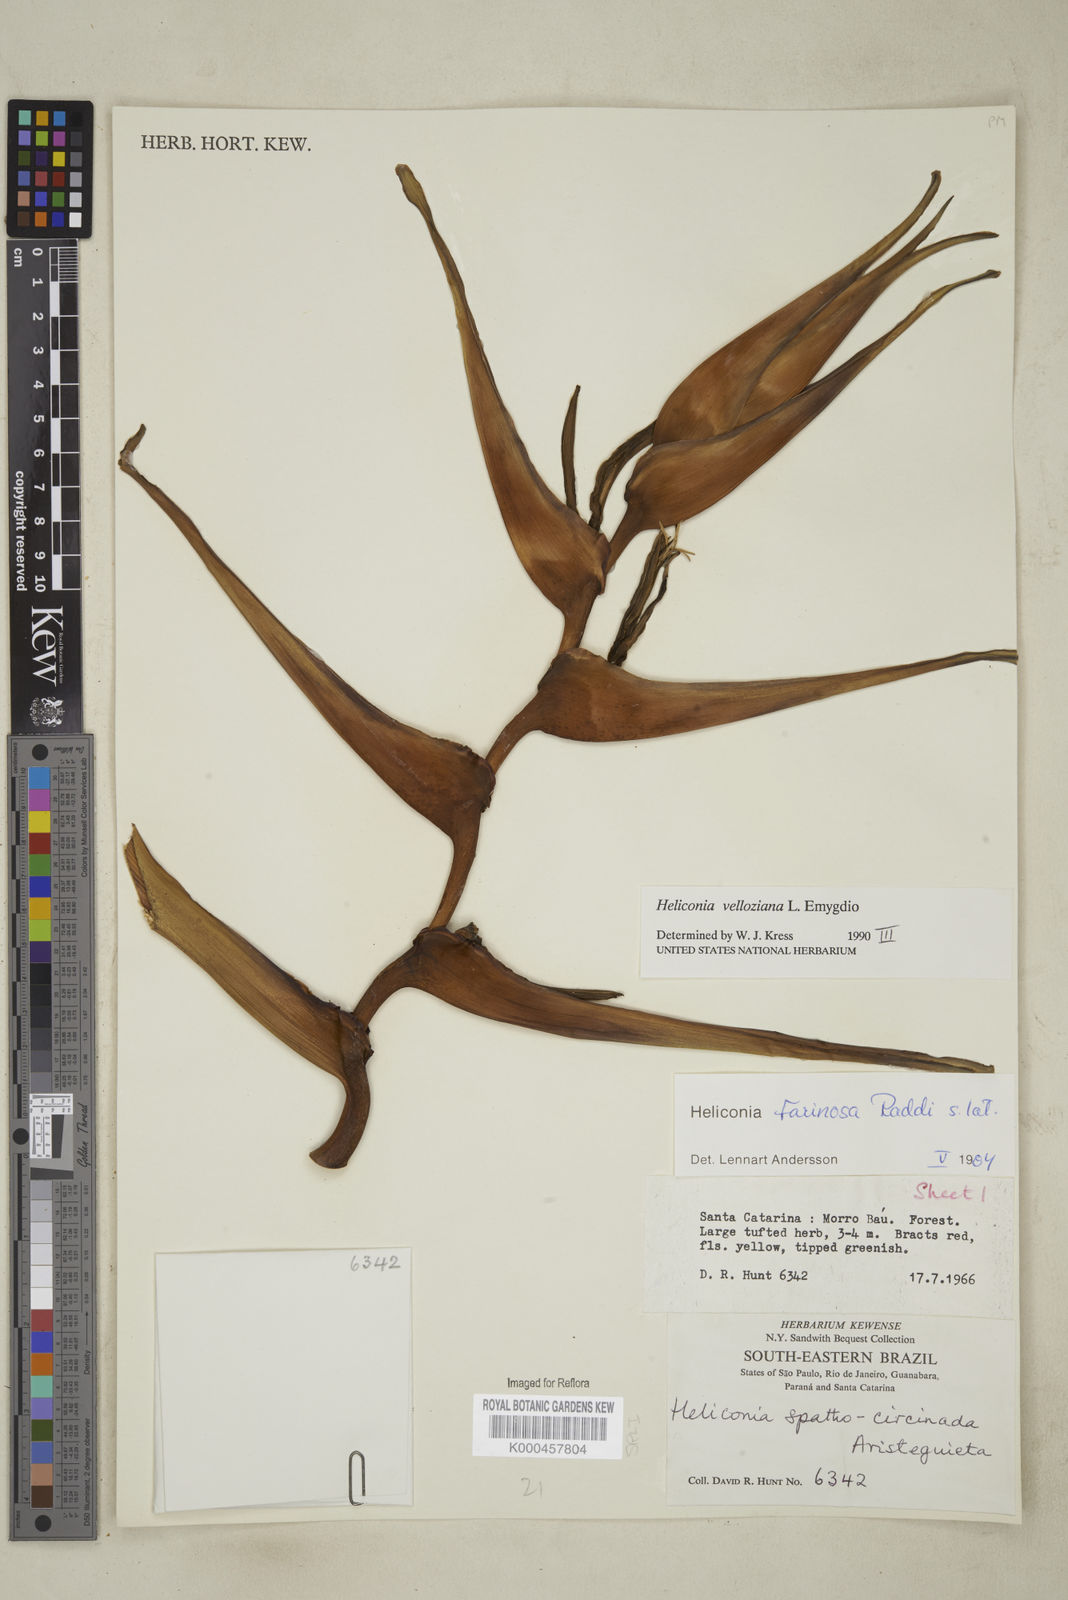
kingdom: Plantae
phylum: Tracheophyta
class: Liliopsida
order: Zingiberales
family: Heliconiaceae
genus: Heliconia
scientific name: Heliconia farinosa
